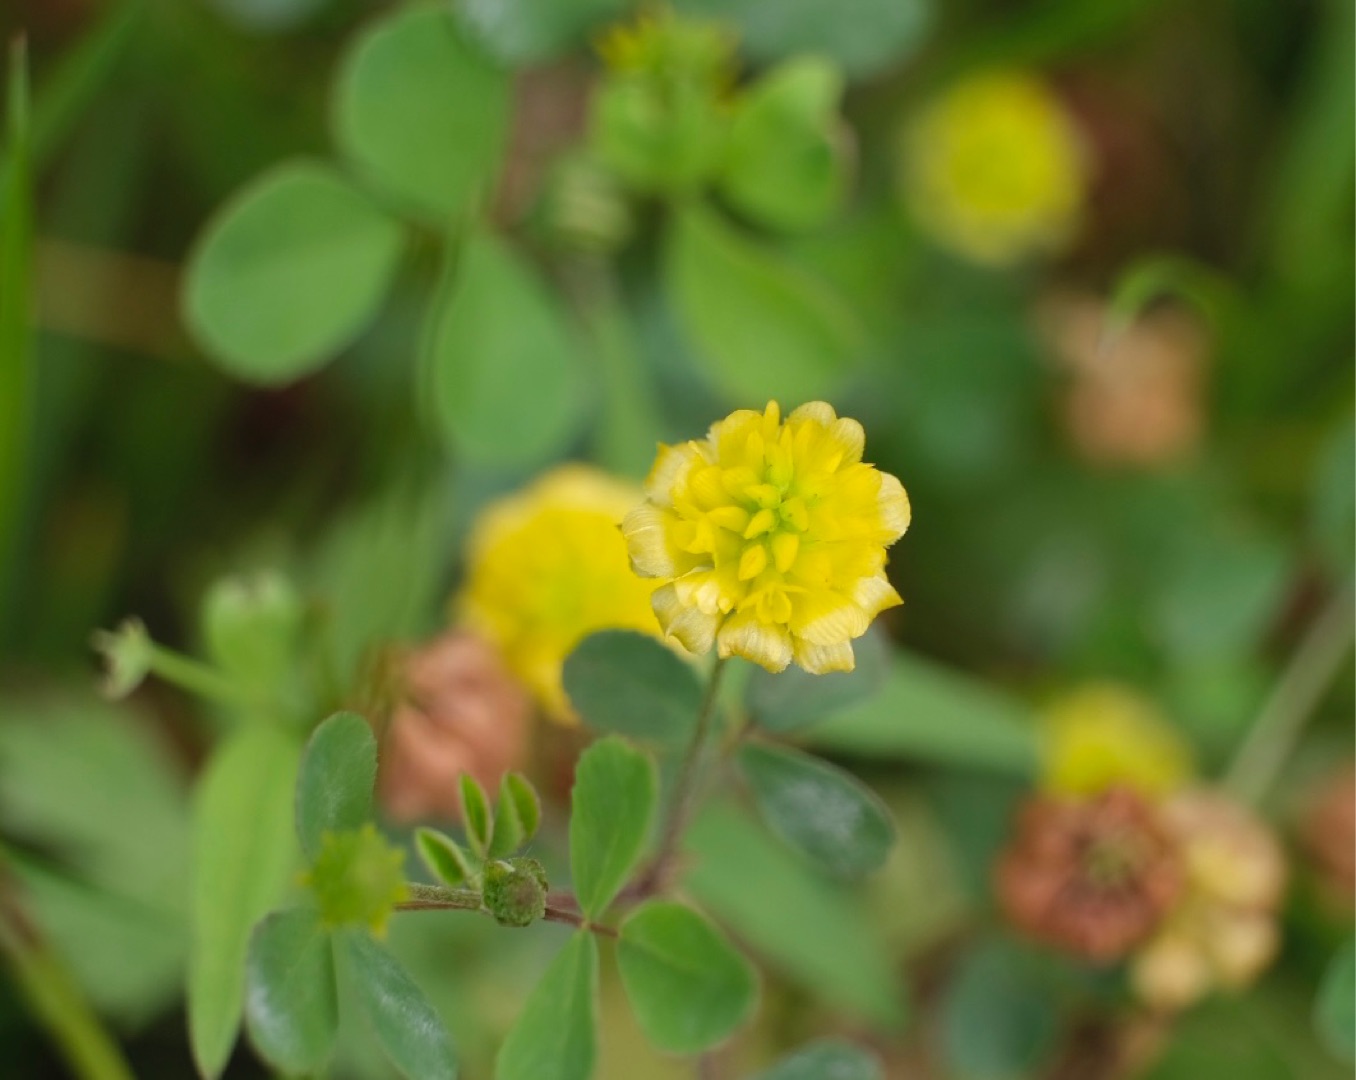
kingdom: Plantae
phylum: Tracheophyta
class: Magnoliopsida
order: Fabales
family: Fabaceae
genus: Trifolium
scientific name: Trifolium campestre
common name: Gul kløver
